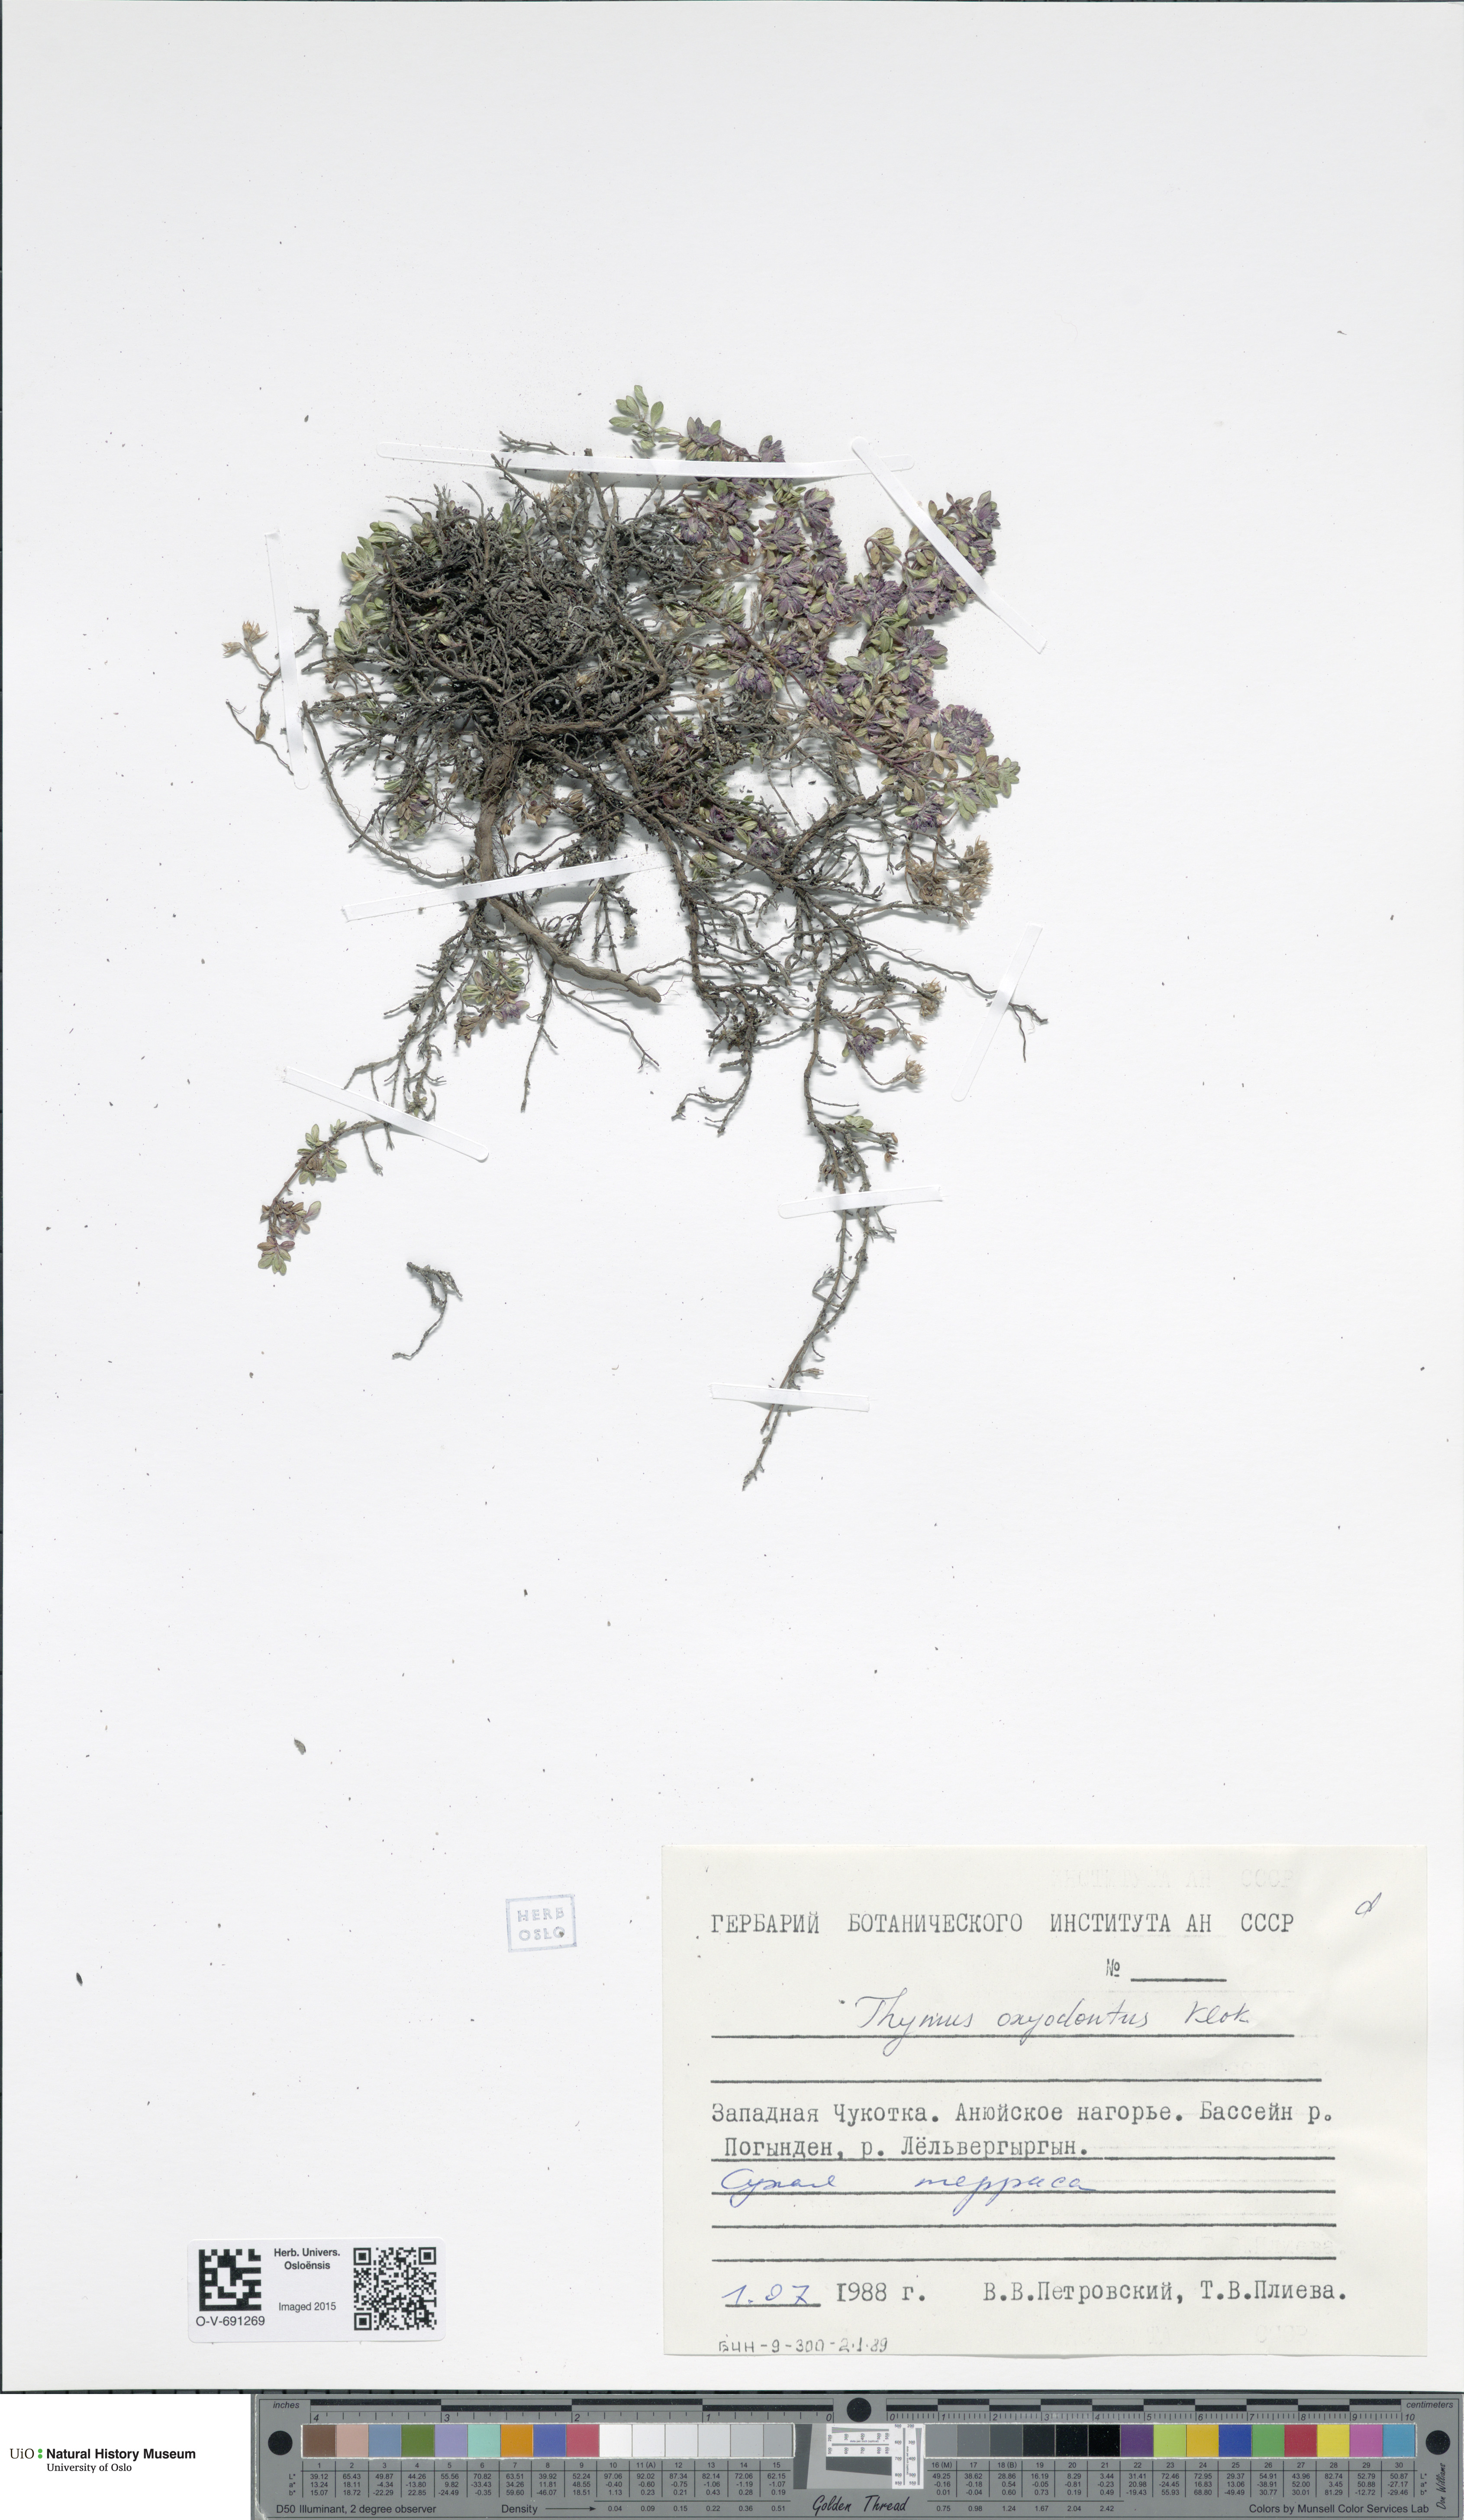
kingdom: Plantae
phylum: Tracheophyta
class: Magnoliopsida
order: Lamiales
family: Lamiaceae
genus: Thymus
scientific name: Thymus oxyodontus
